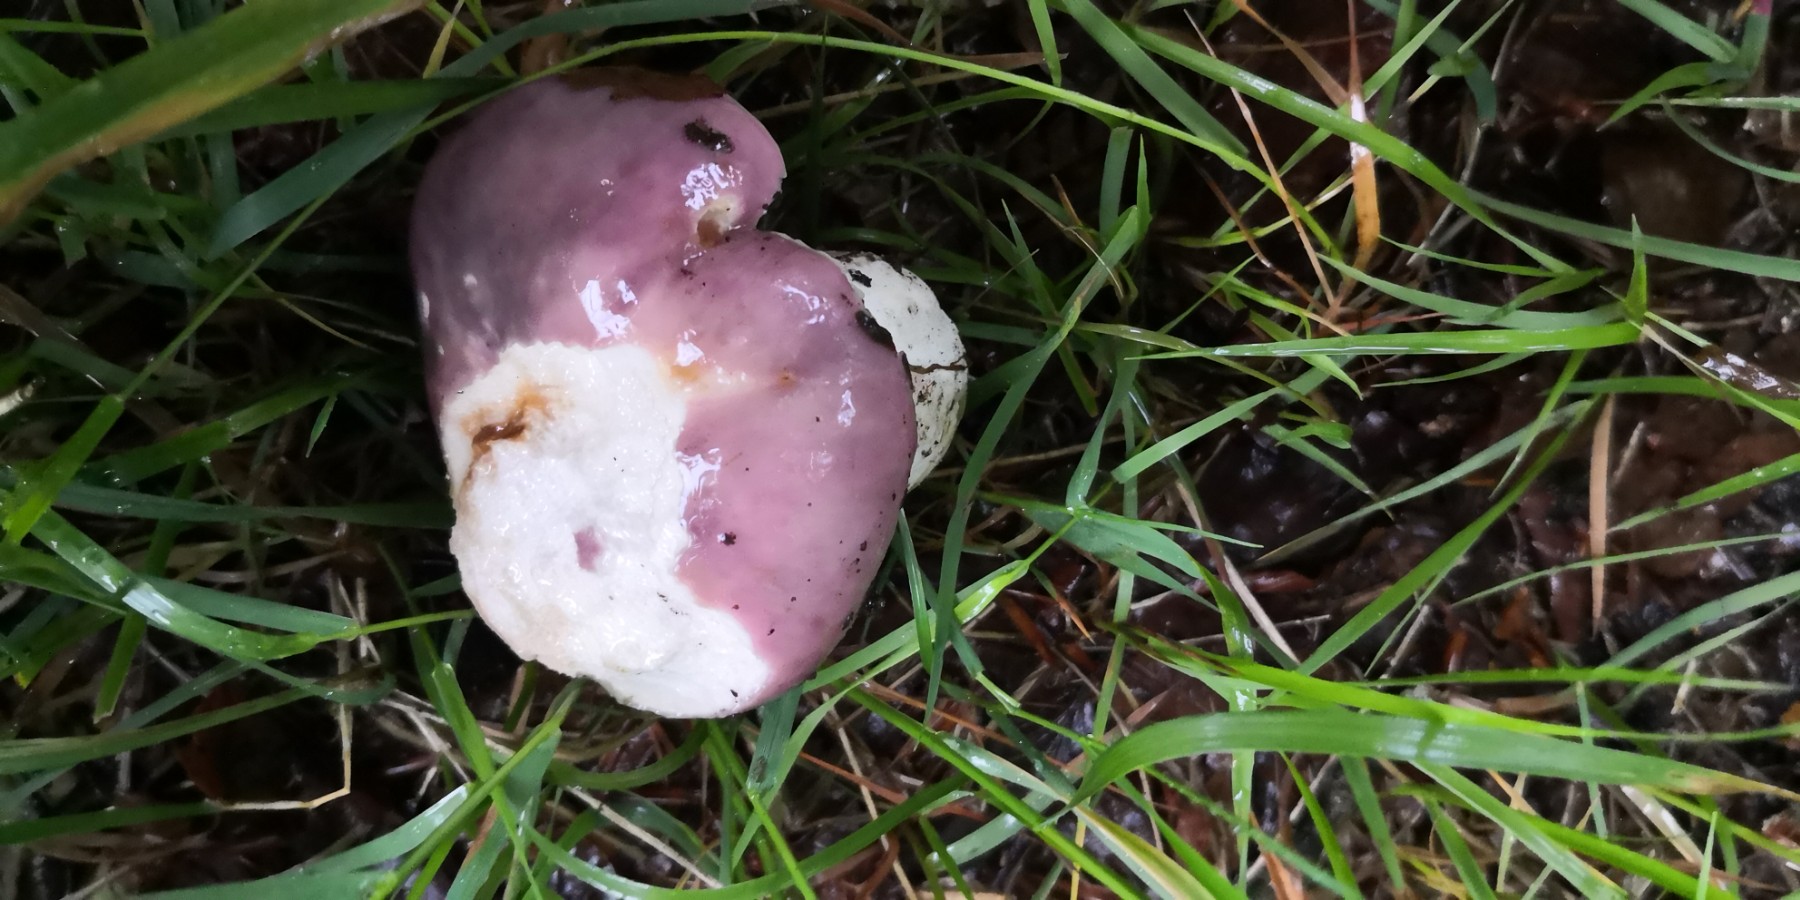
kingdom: Fungi
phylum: Basidiomycota
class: Agaricomycetes
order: Russulales
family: Russulaceae
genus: Russula
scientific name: Russula cyanoxantha
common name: broget skørhat
